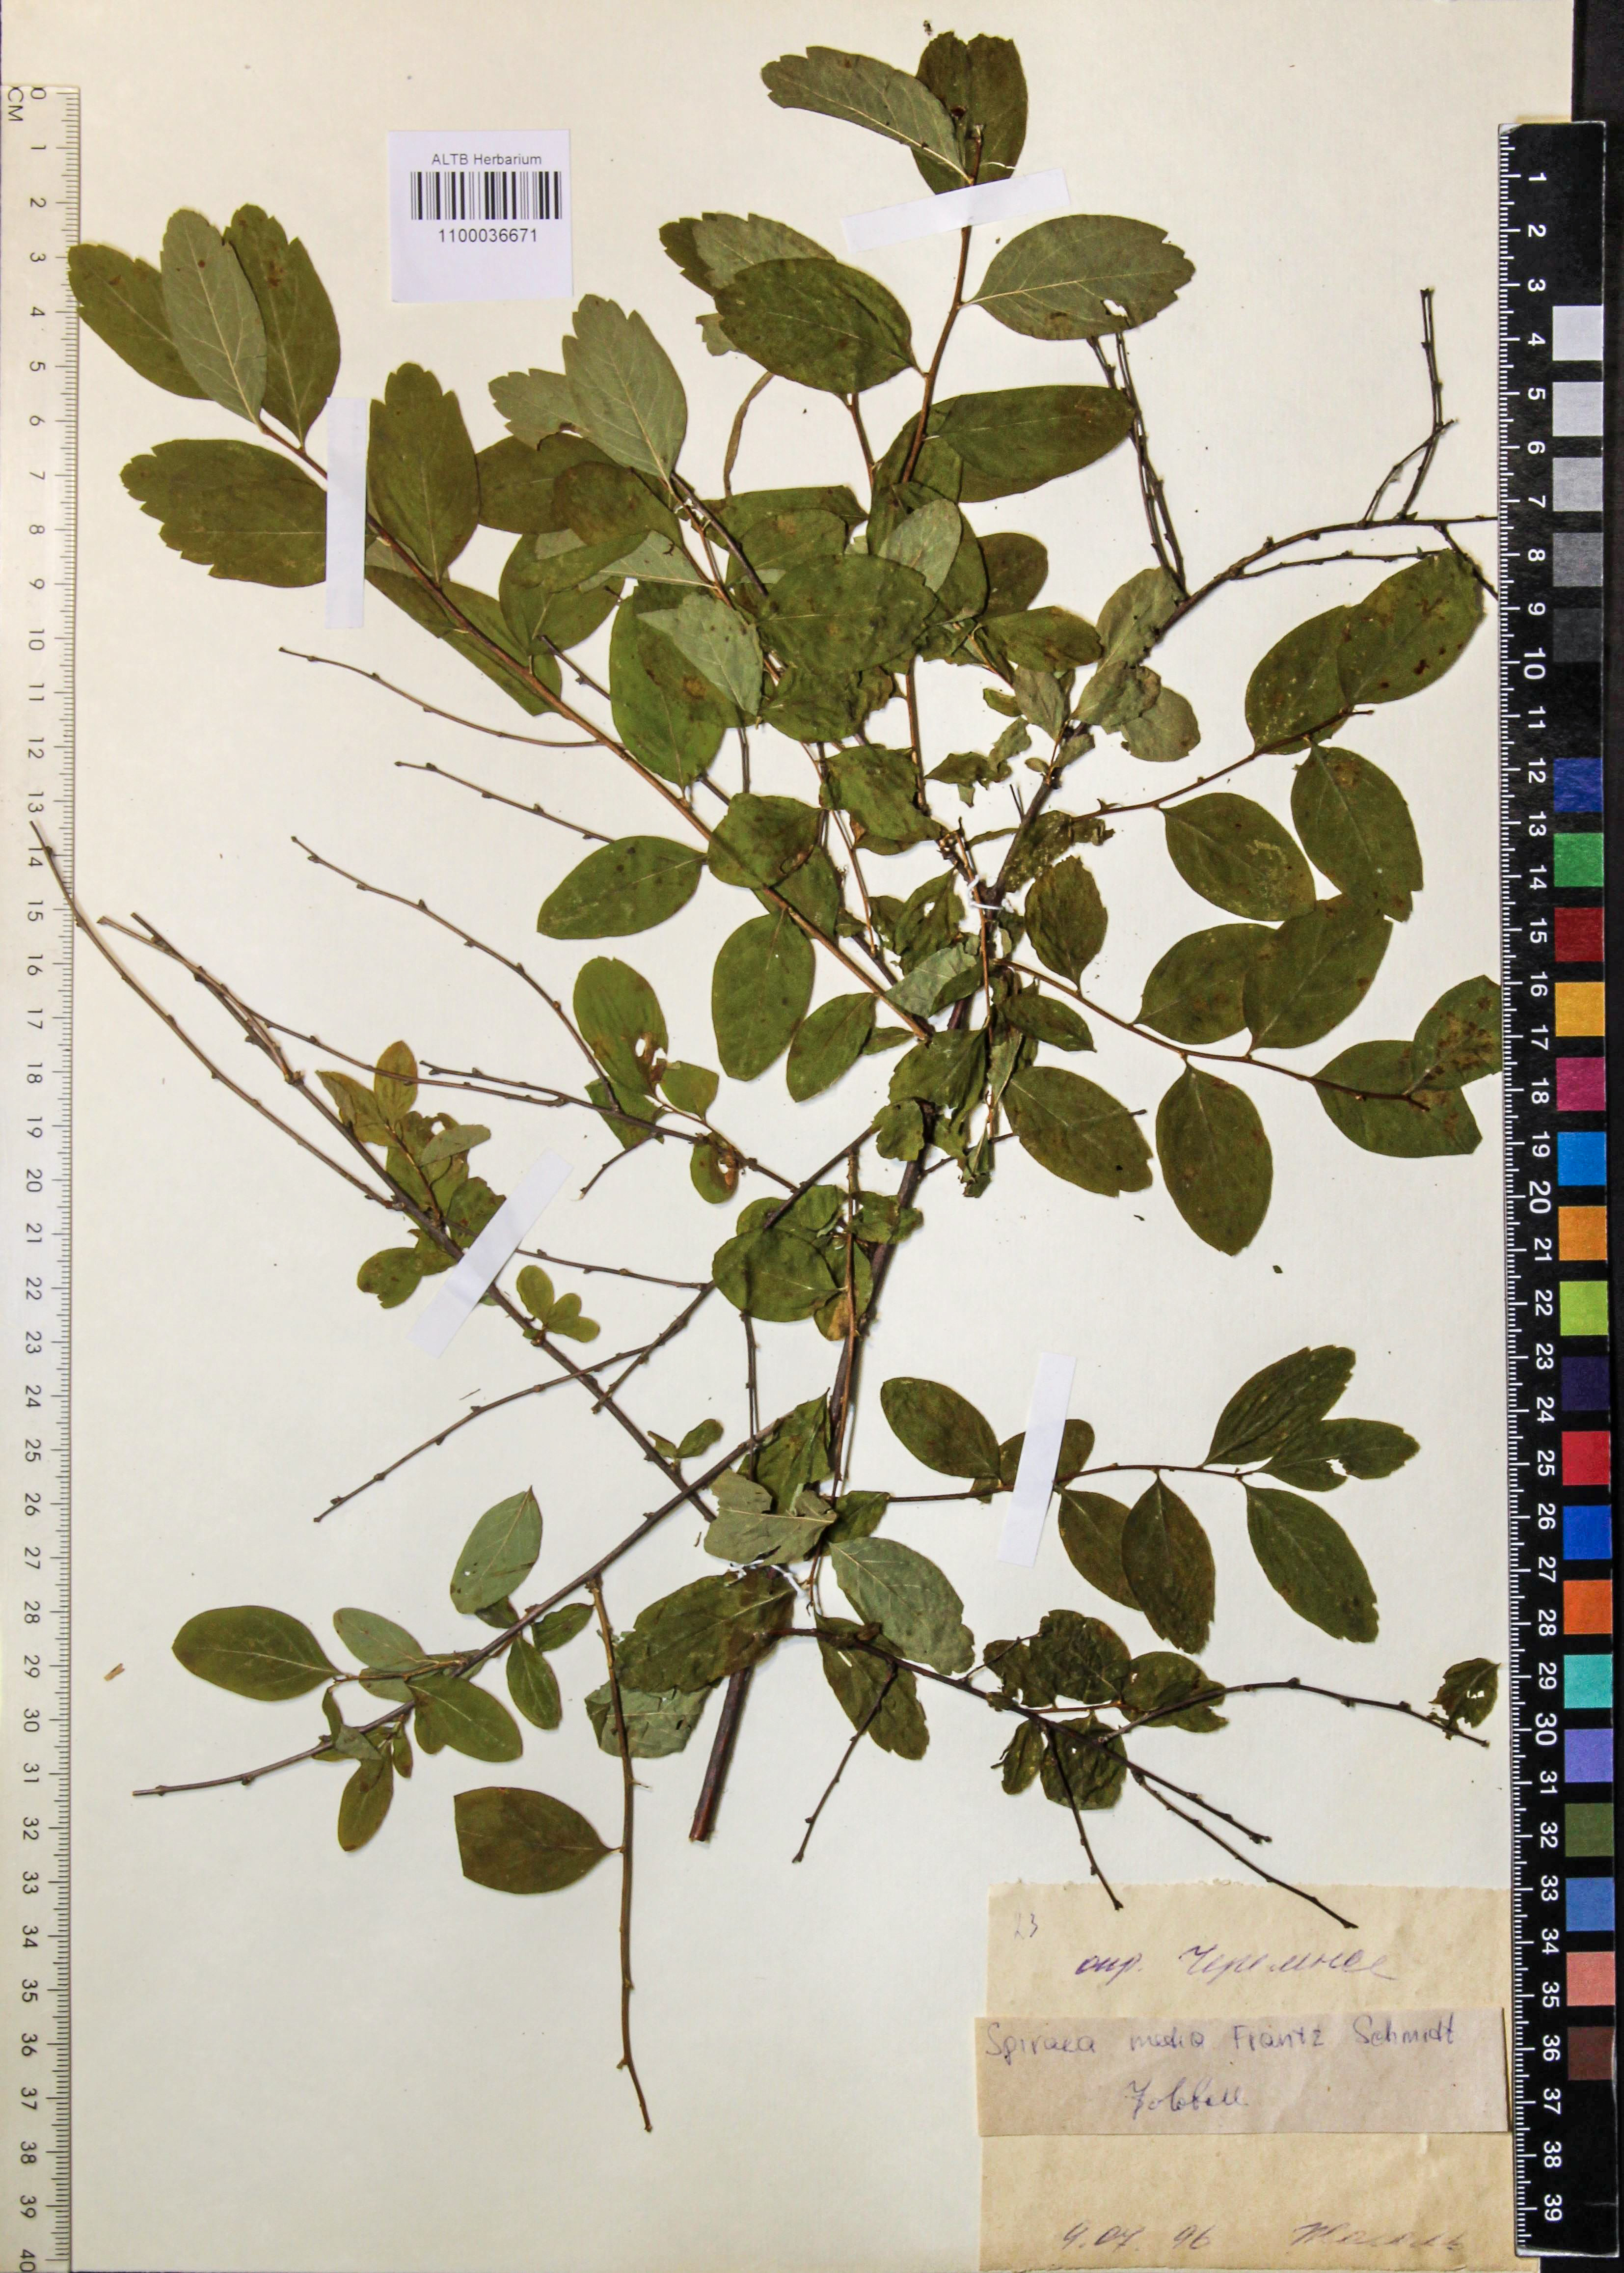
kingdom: Plantae
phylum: Tracheophyta
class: Magnoliopsida
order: Rosales
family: Rosaceae
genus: Spiraea
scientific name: Spiraea media
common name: Russian spiraea
